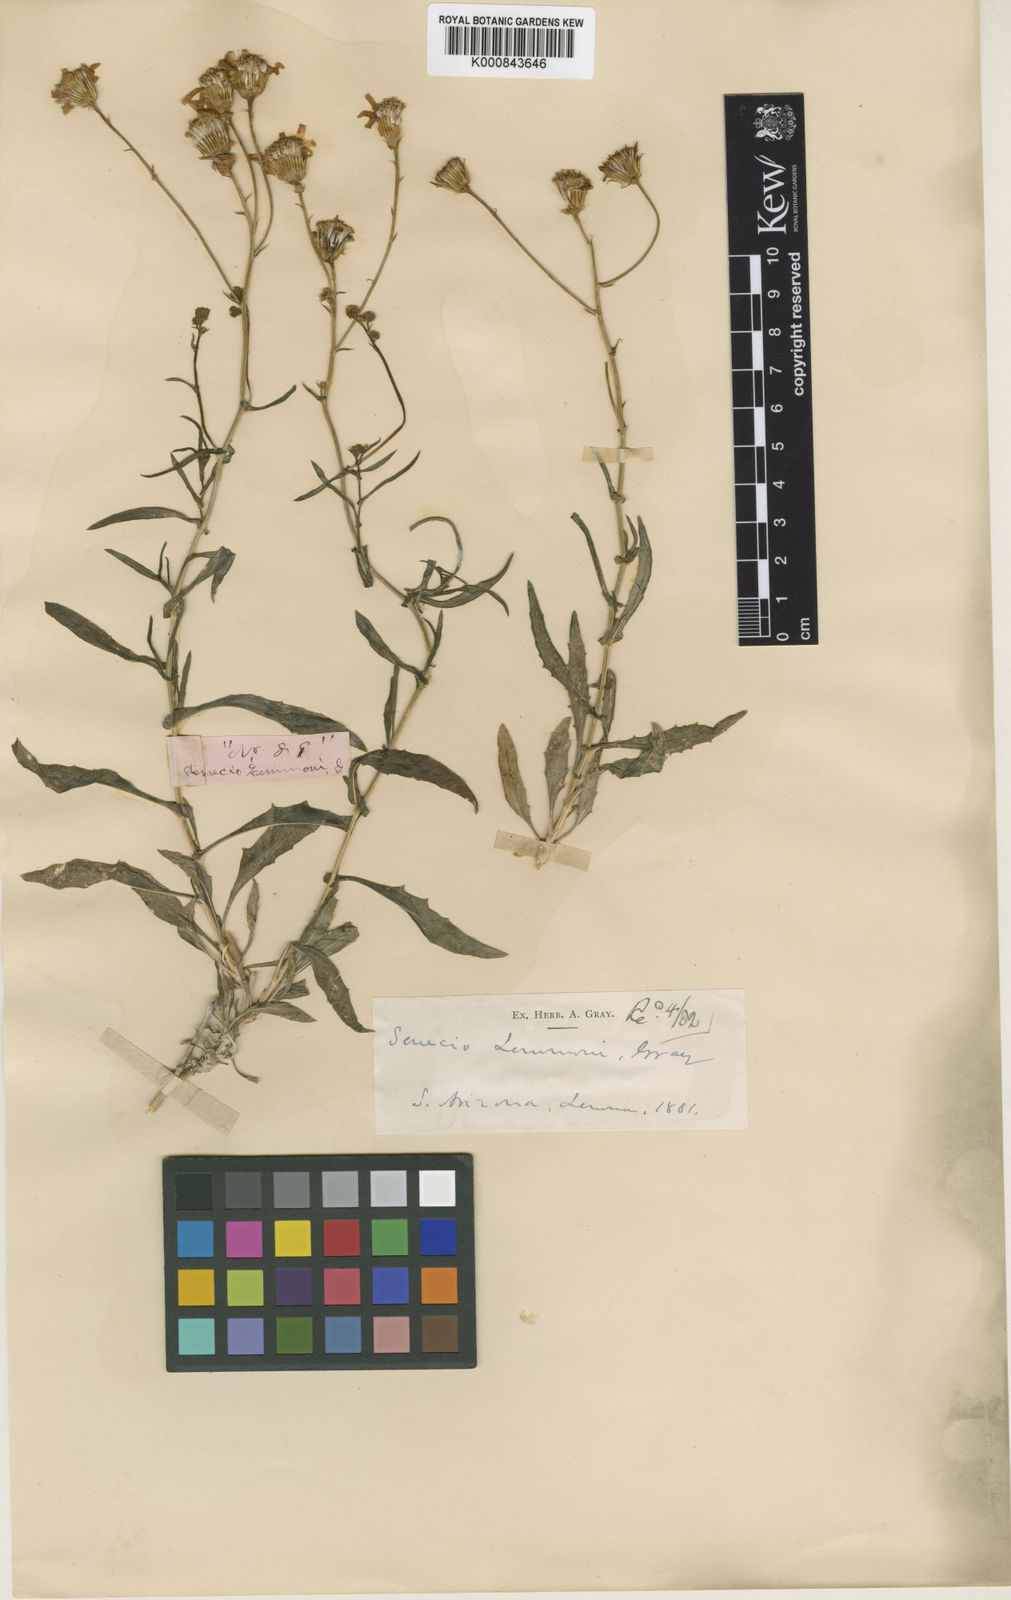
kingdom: Plantae
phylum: Tracheophyta
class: Magnoliopsida
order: Asterales
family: Asteraceae
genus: Senecio
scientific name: Senecio lemmonii
